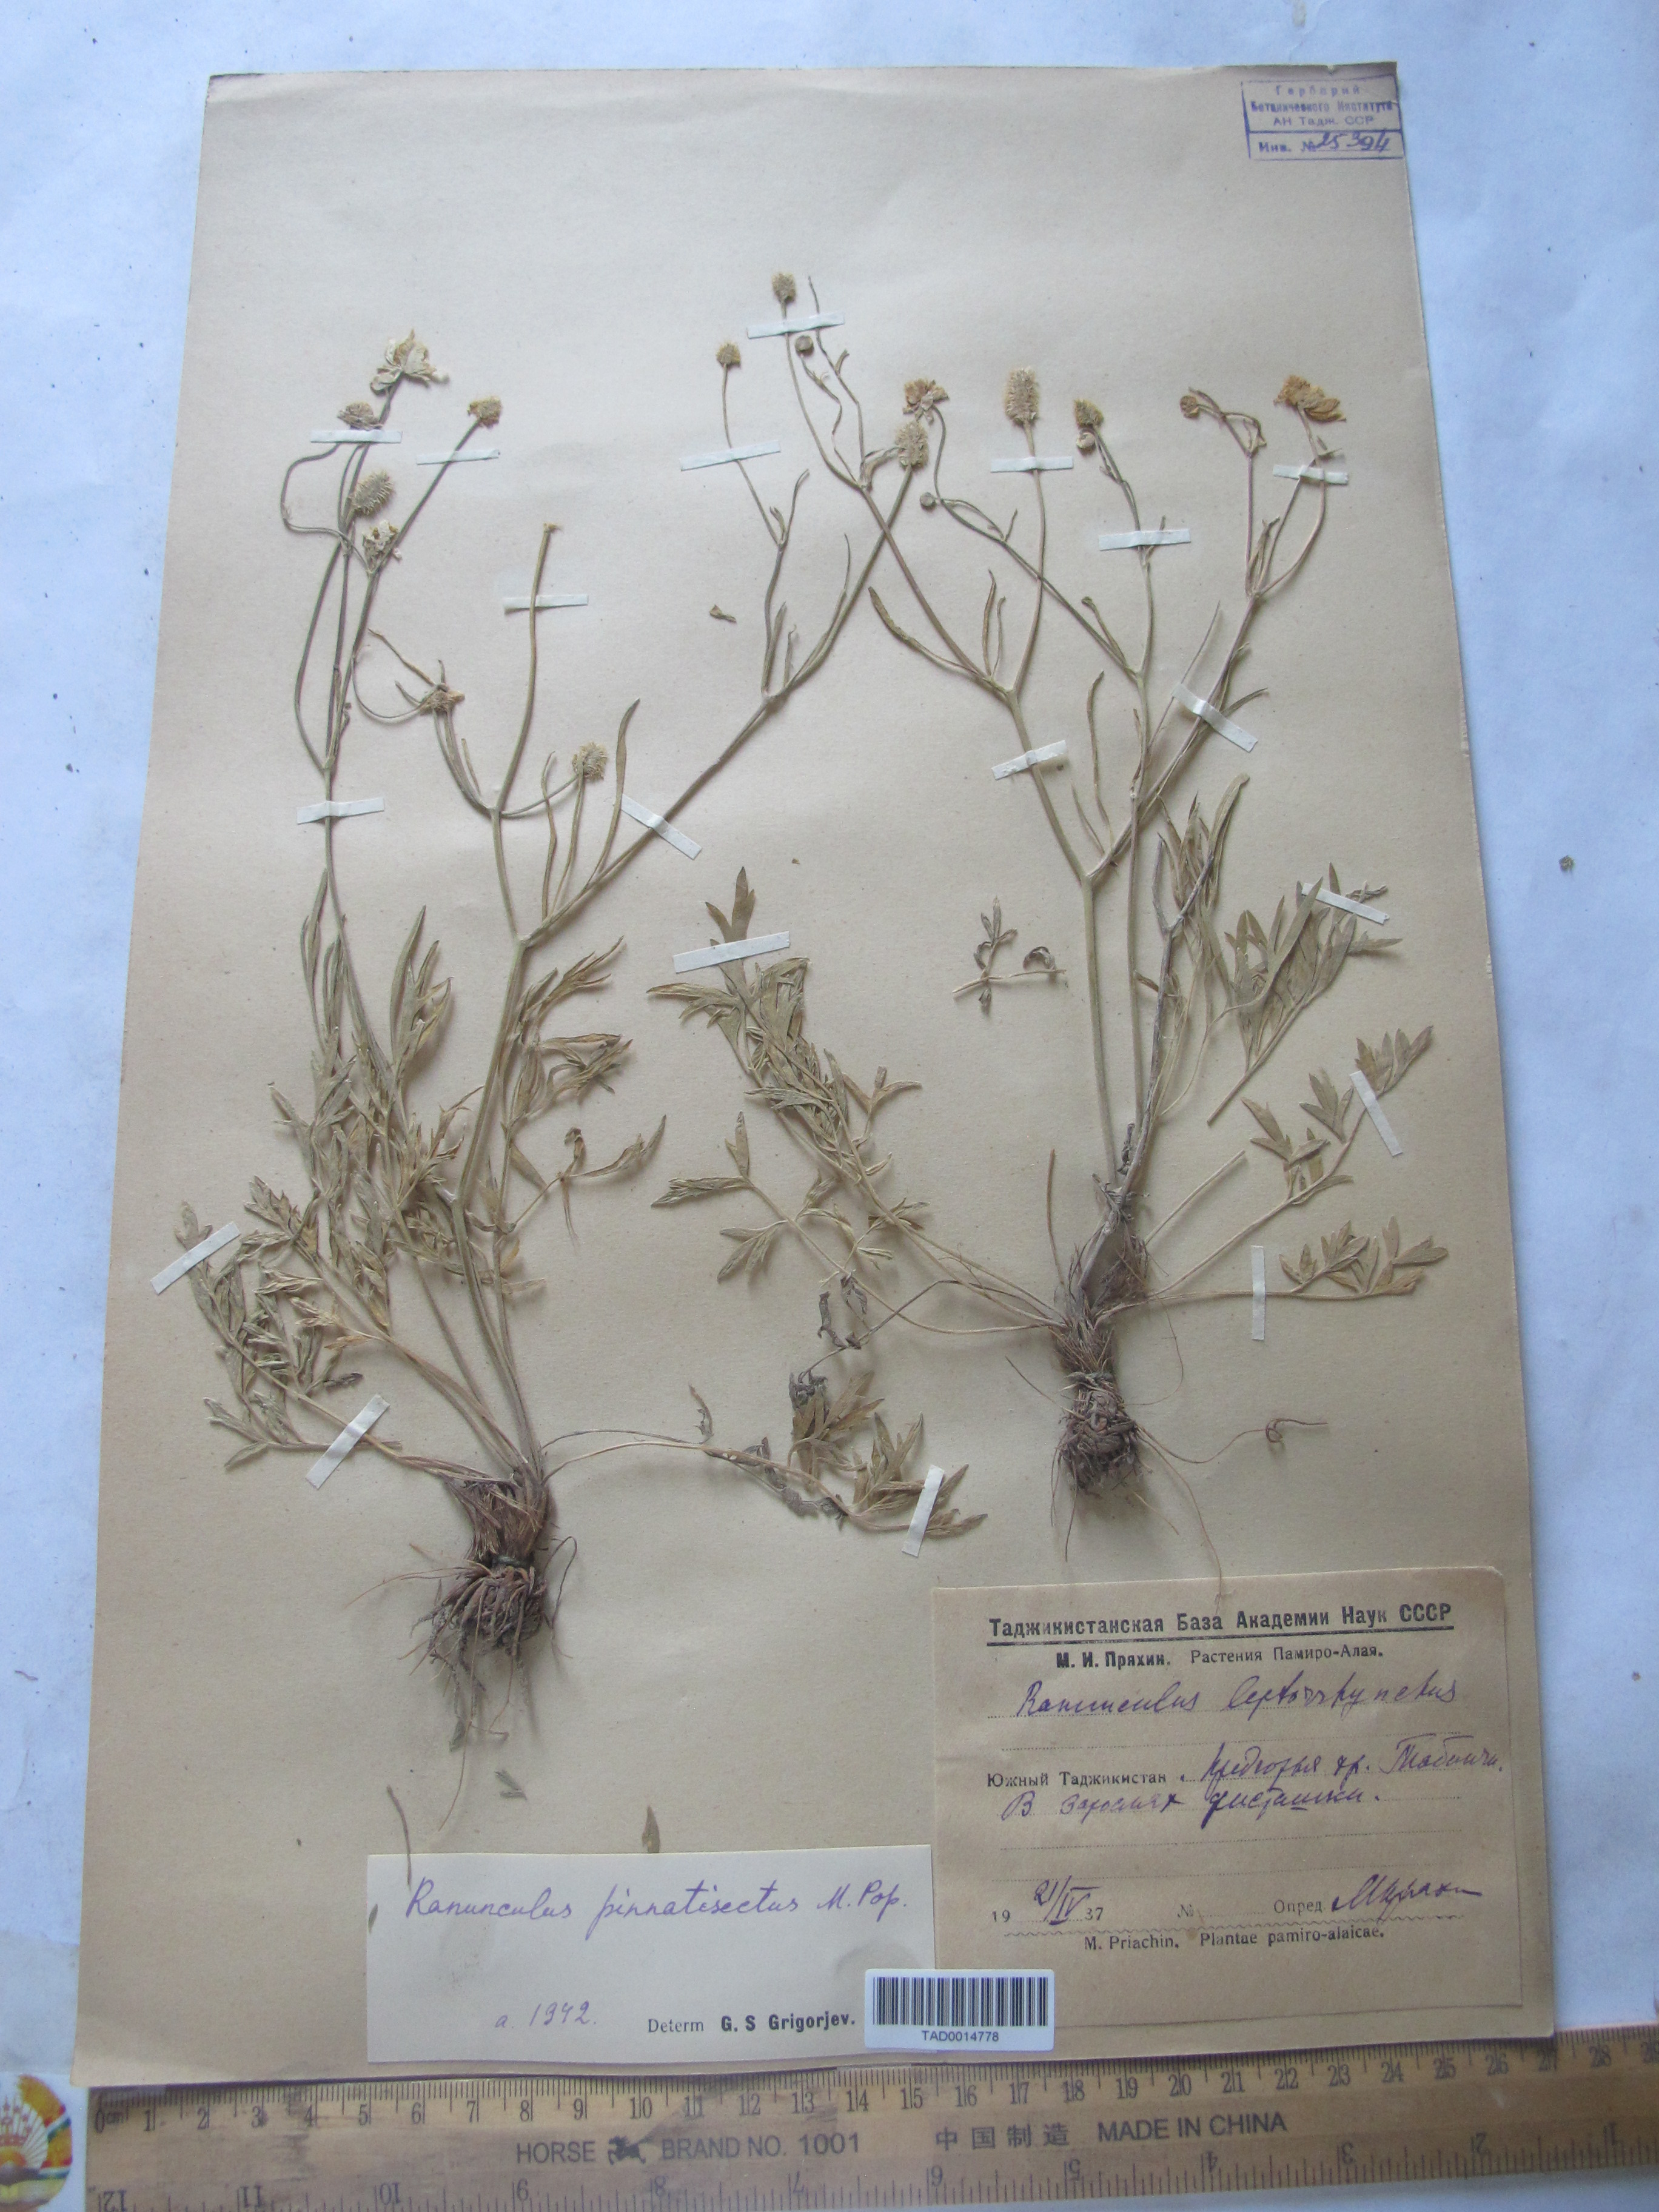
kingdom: Plantae
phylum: Tracheophyta
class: Magnoliopsida
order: Ranunculales
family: Ranunculaceae
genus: Ranunculus
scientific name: Ranunculus
